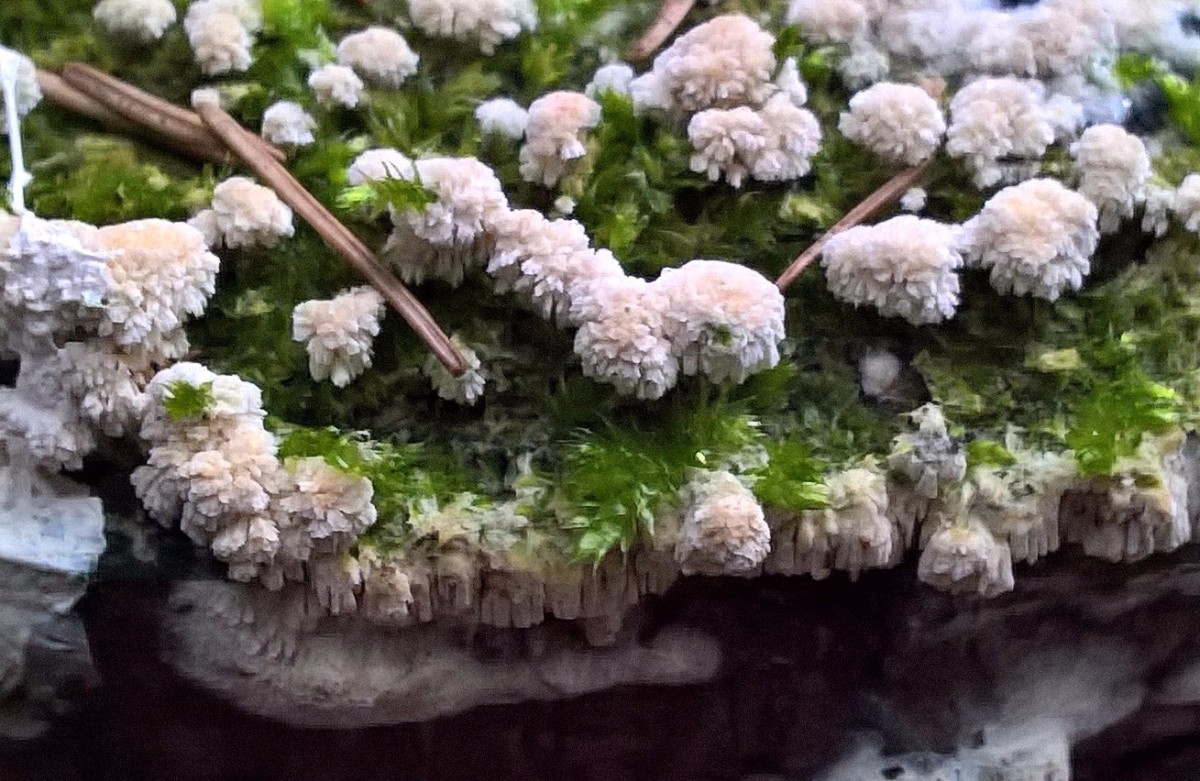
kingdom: Fungi
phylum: Basidiomycota
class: Agaricomycetes
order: Hymenochaetales
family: Schizoporaceae
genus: Schizopora
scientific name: Schizopora paradoxa
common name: hvid tandsvamp
